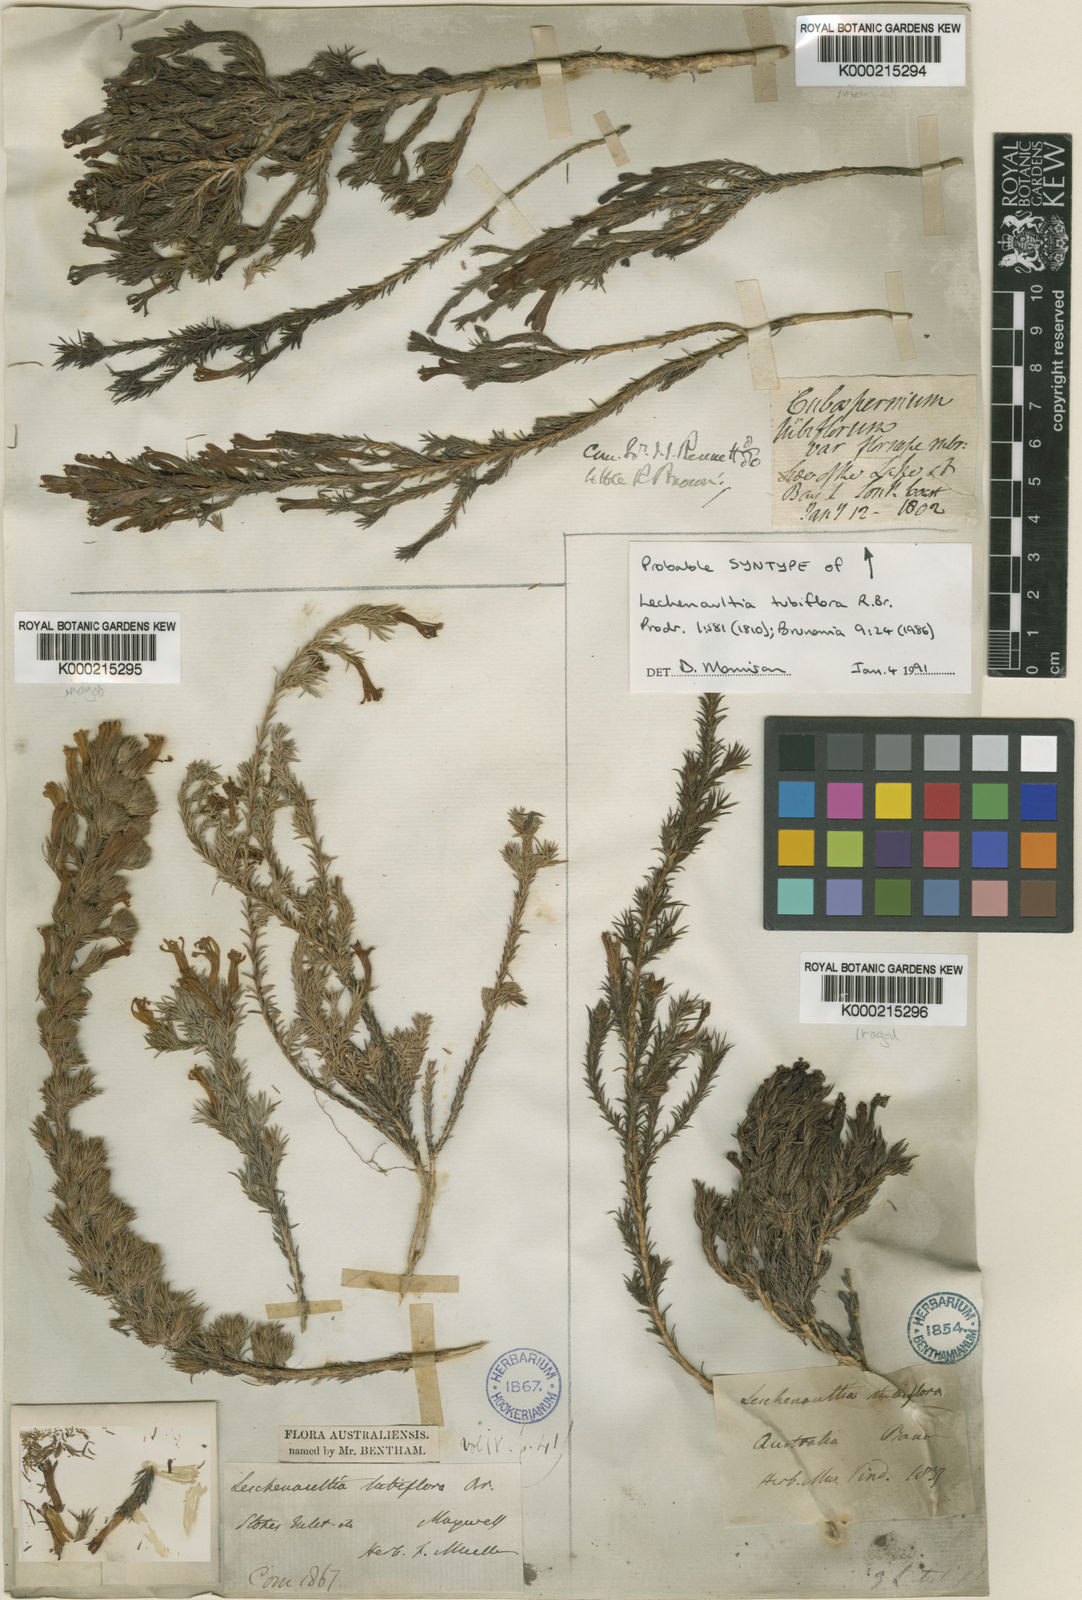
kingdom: Plantae
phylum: Tracheophyta
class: Magnoliopsida
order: Asterales
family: Goodeniaceae
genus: Leschenaultia
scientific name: Leschenaultia tubiflora
